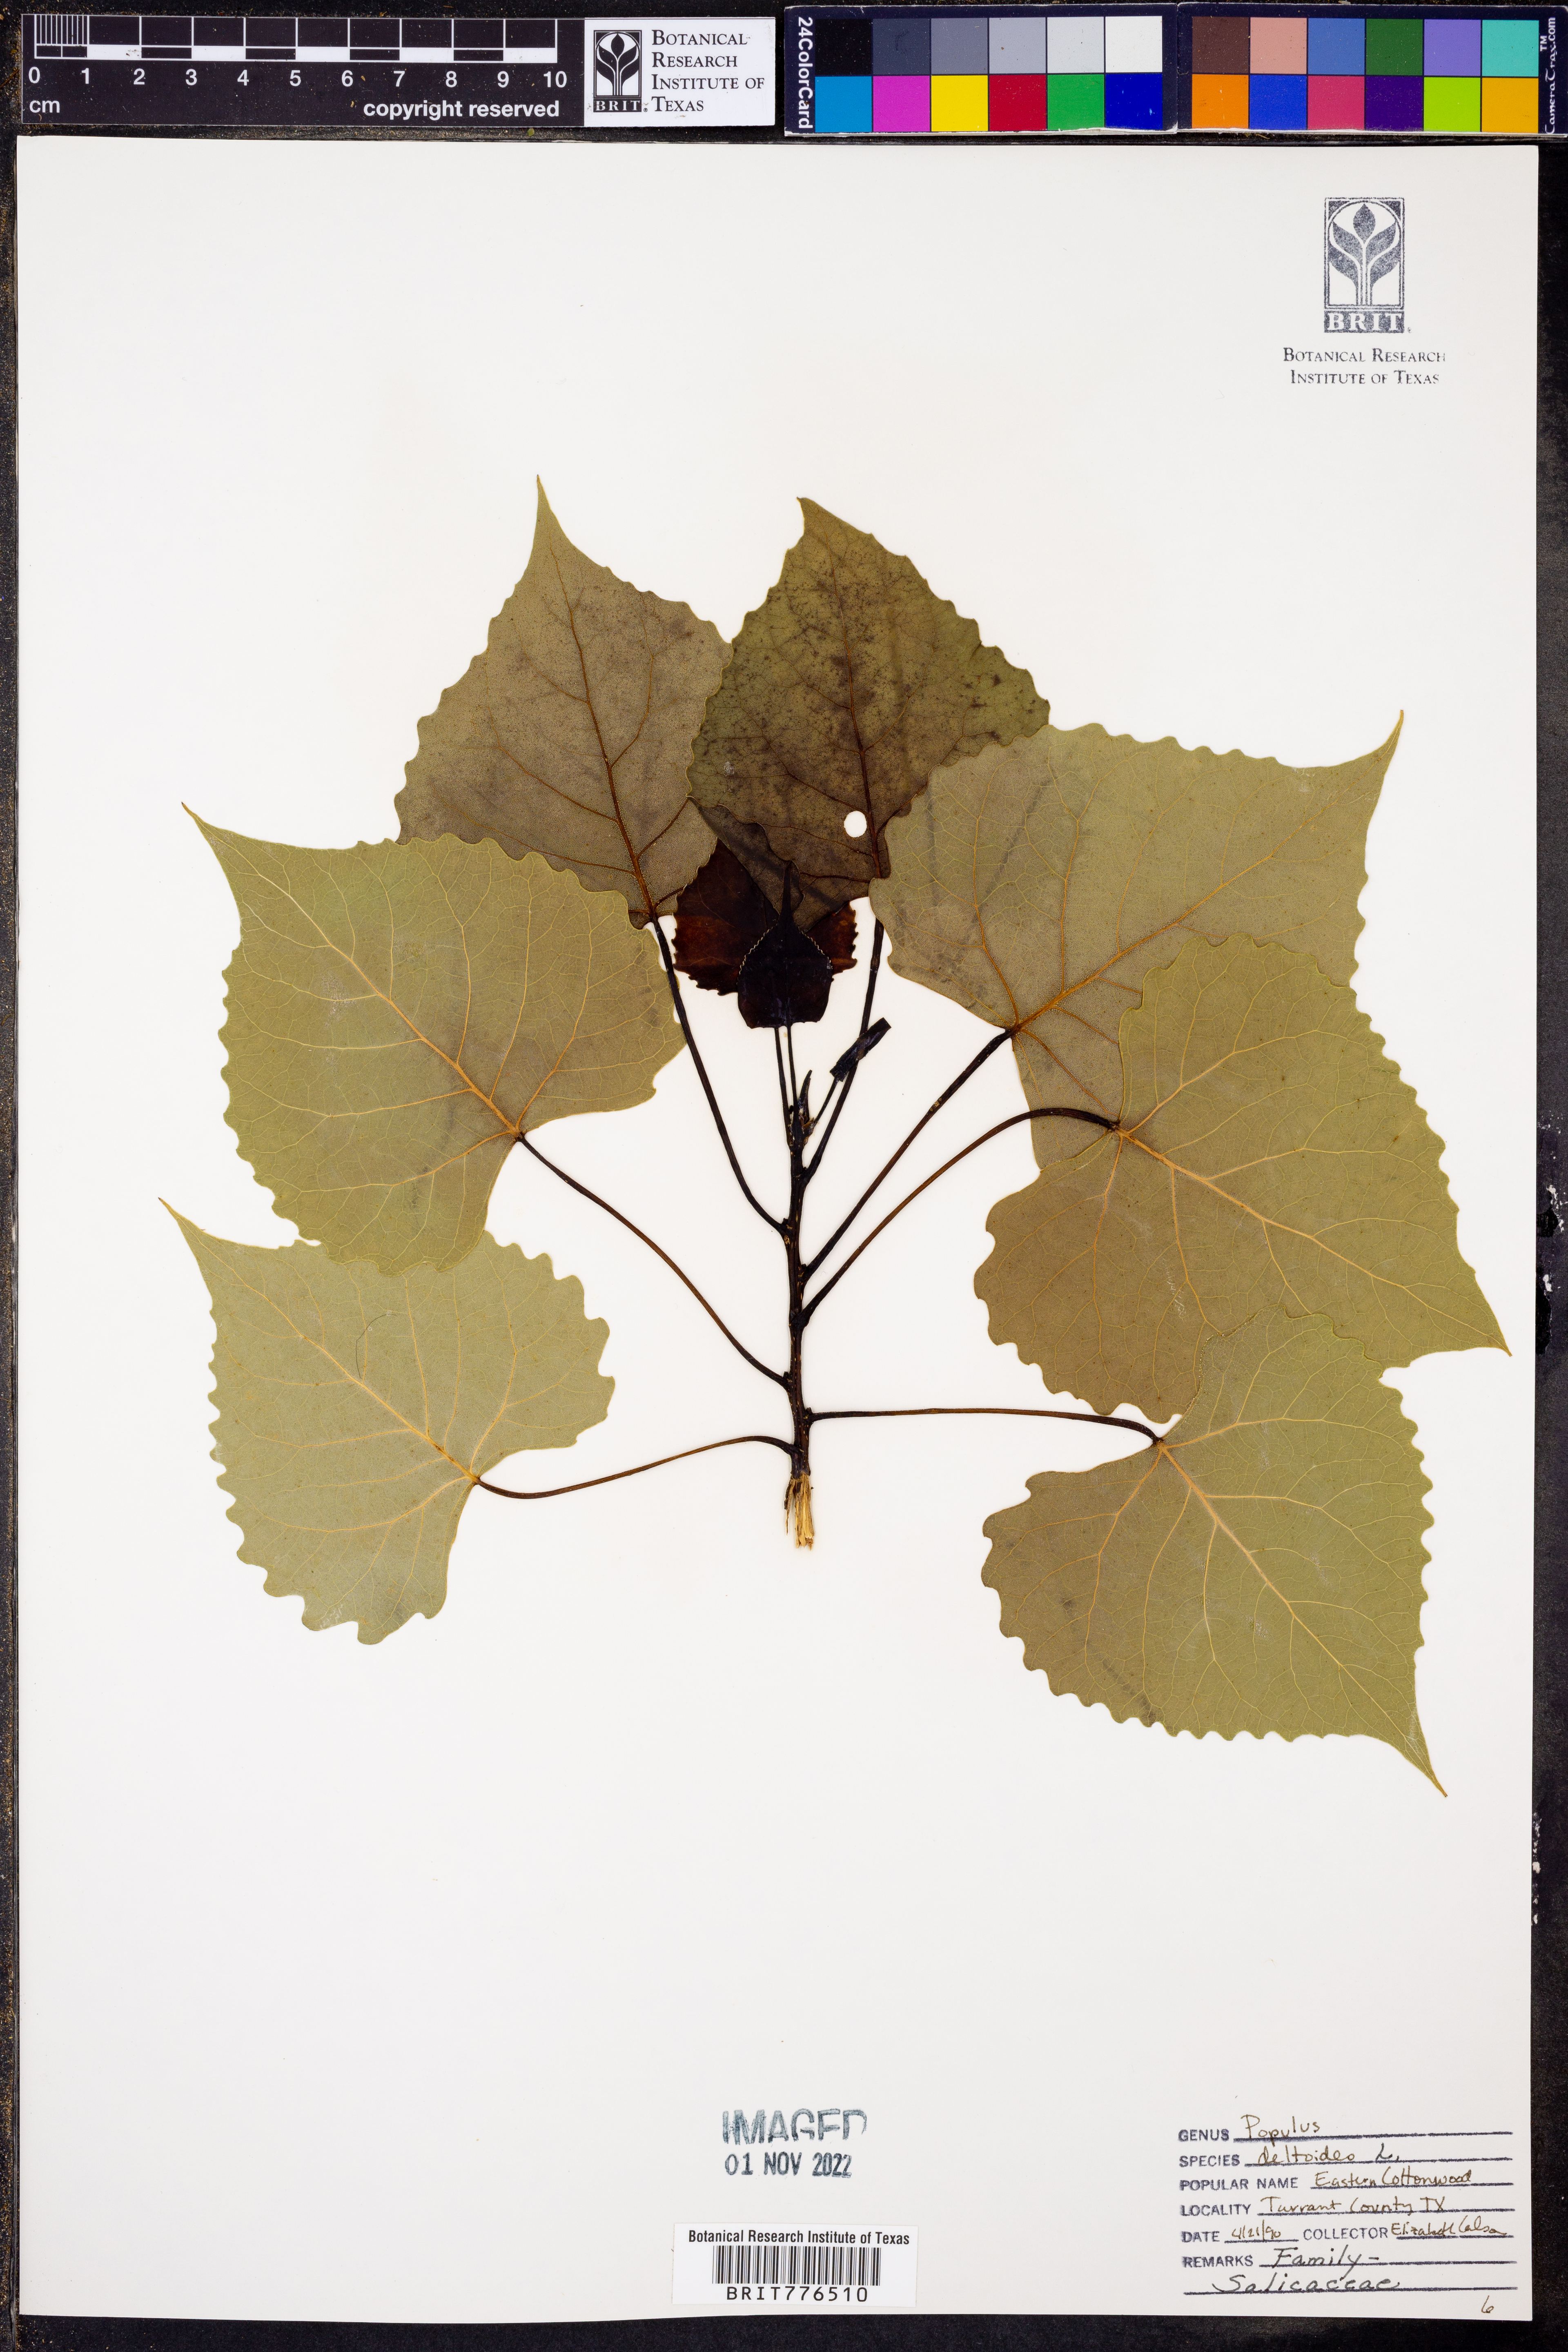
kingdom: Plantae
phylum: Tracheophyta
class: Magnoliopsida
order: Malpighiales
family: Salicaceae
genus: Populus
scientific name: Populus deltoides
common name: Eastern cottonwood
